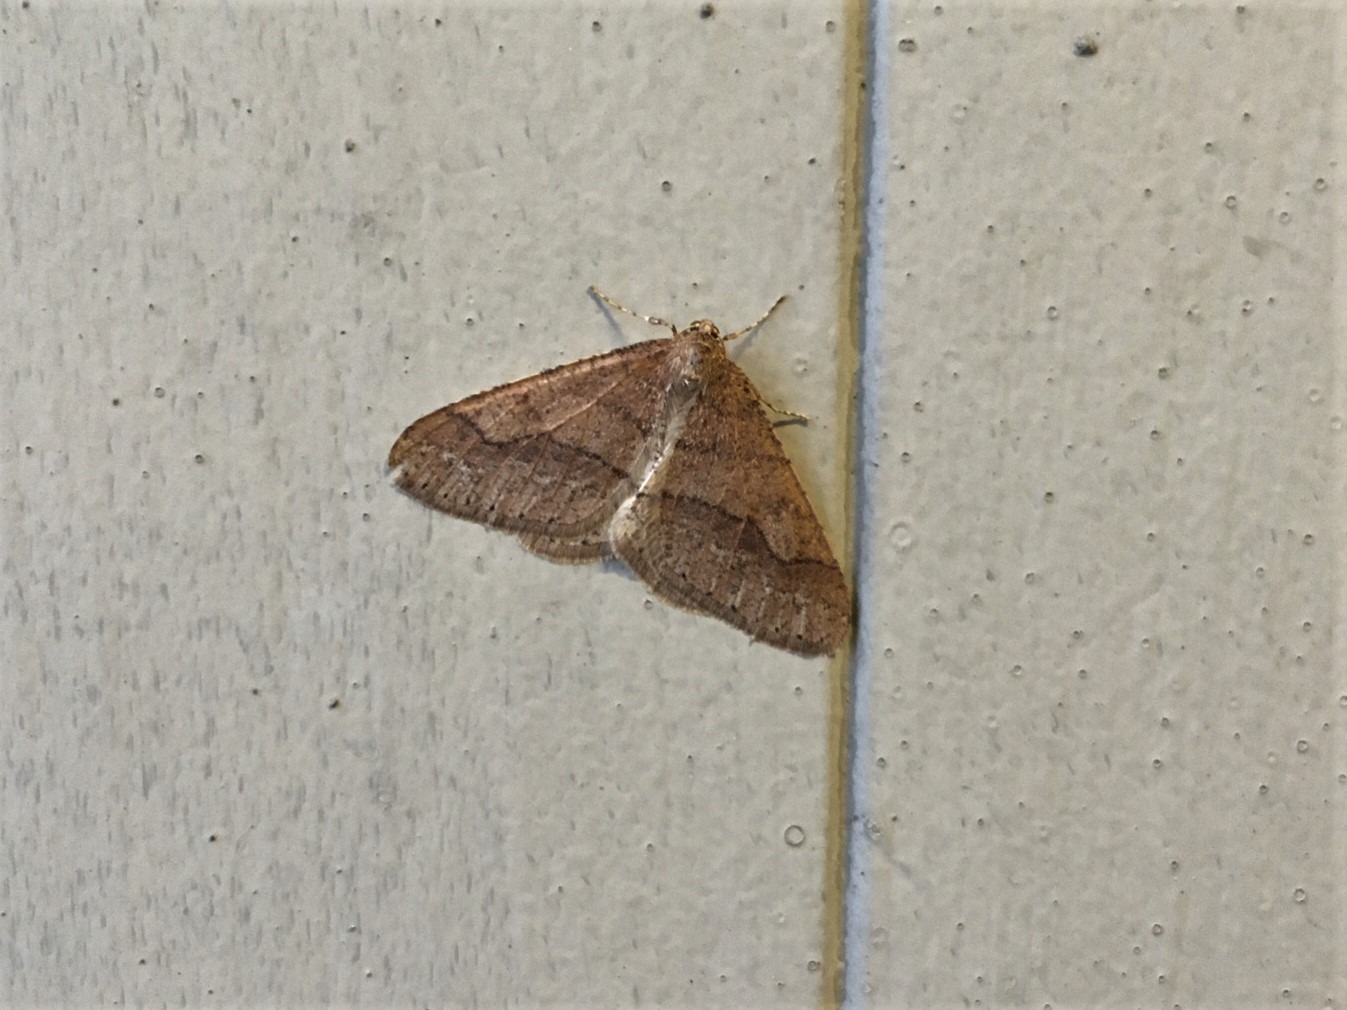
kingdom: Animalia
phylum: Arthropoda
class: Insecta
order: Lepidoptera
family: Geometridae
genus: Agriopis
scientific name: Agriopis marginaria
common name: Grågul frostmåler
